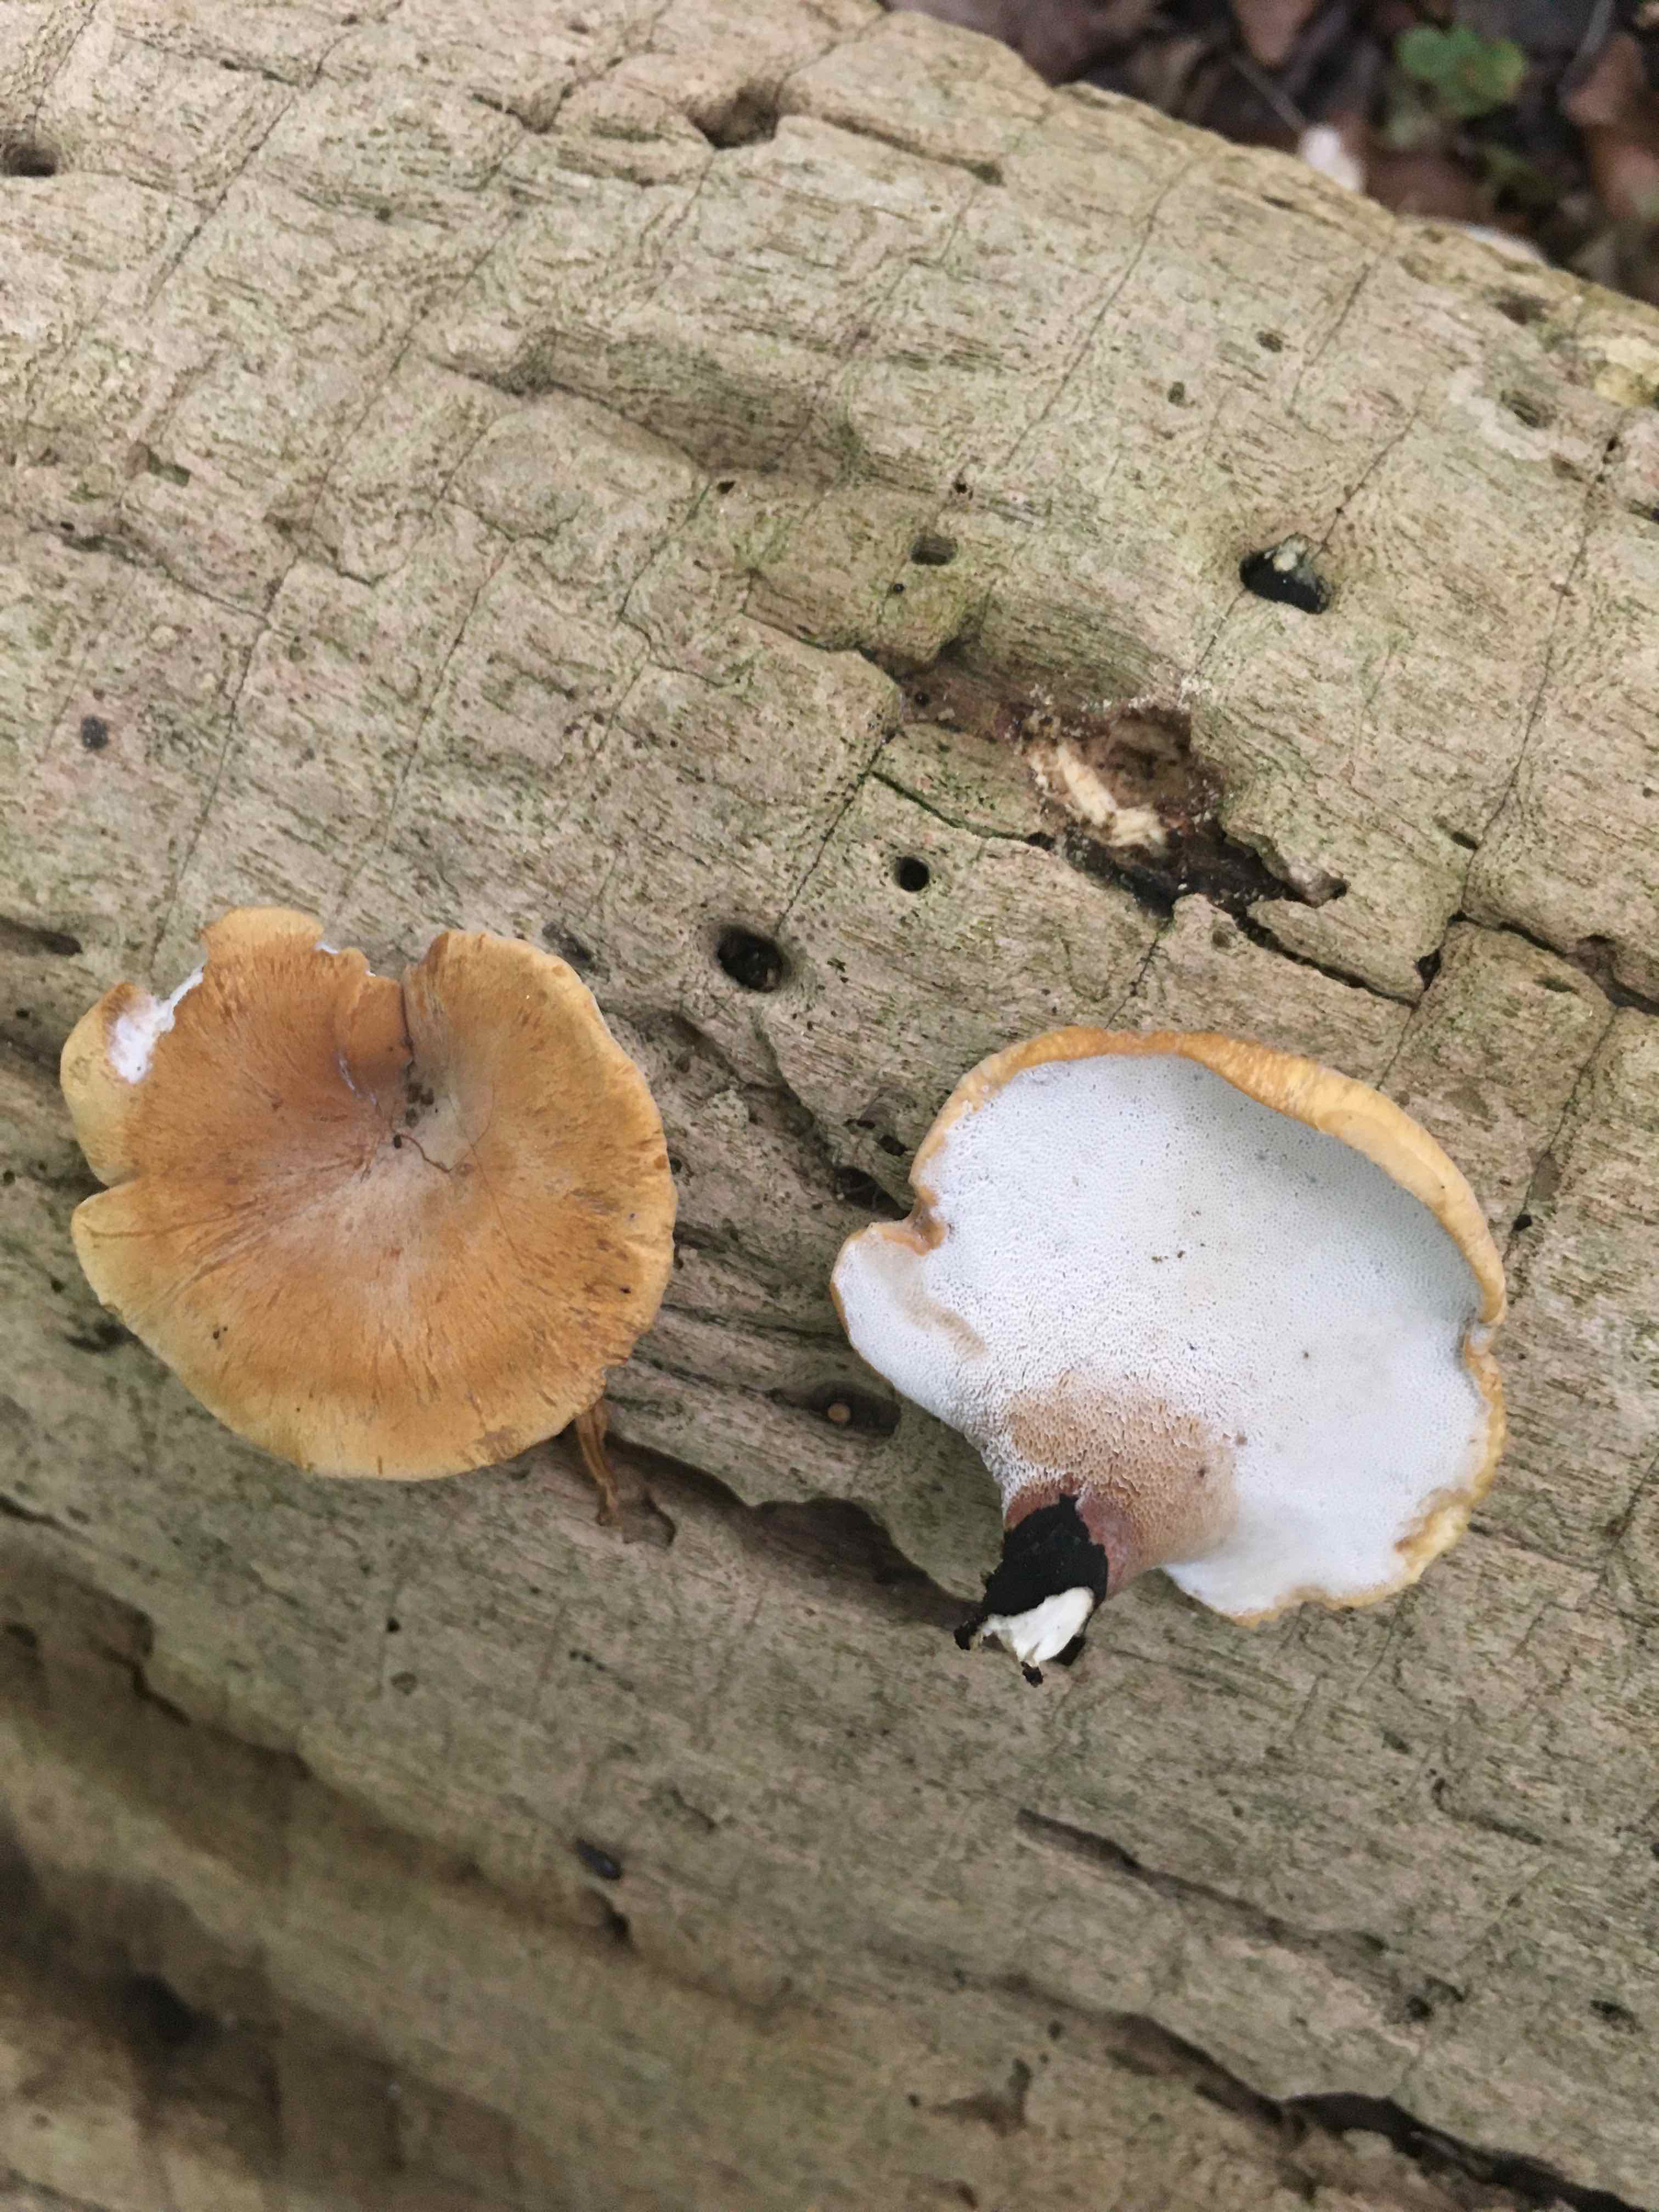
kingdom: Fungi
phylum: Basidiomycota
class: Agaricomycetes
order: Polyporales
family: Polyporaceae
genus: Cerioporus
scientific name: Cerioporus varius
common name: foranderlig stilkporesvamp
